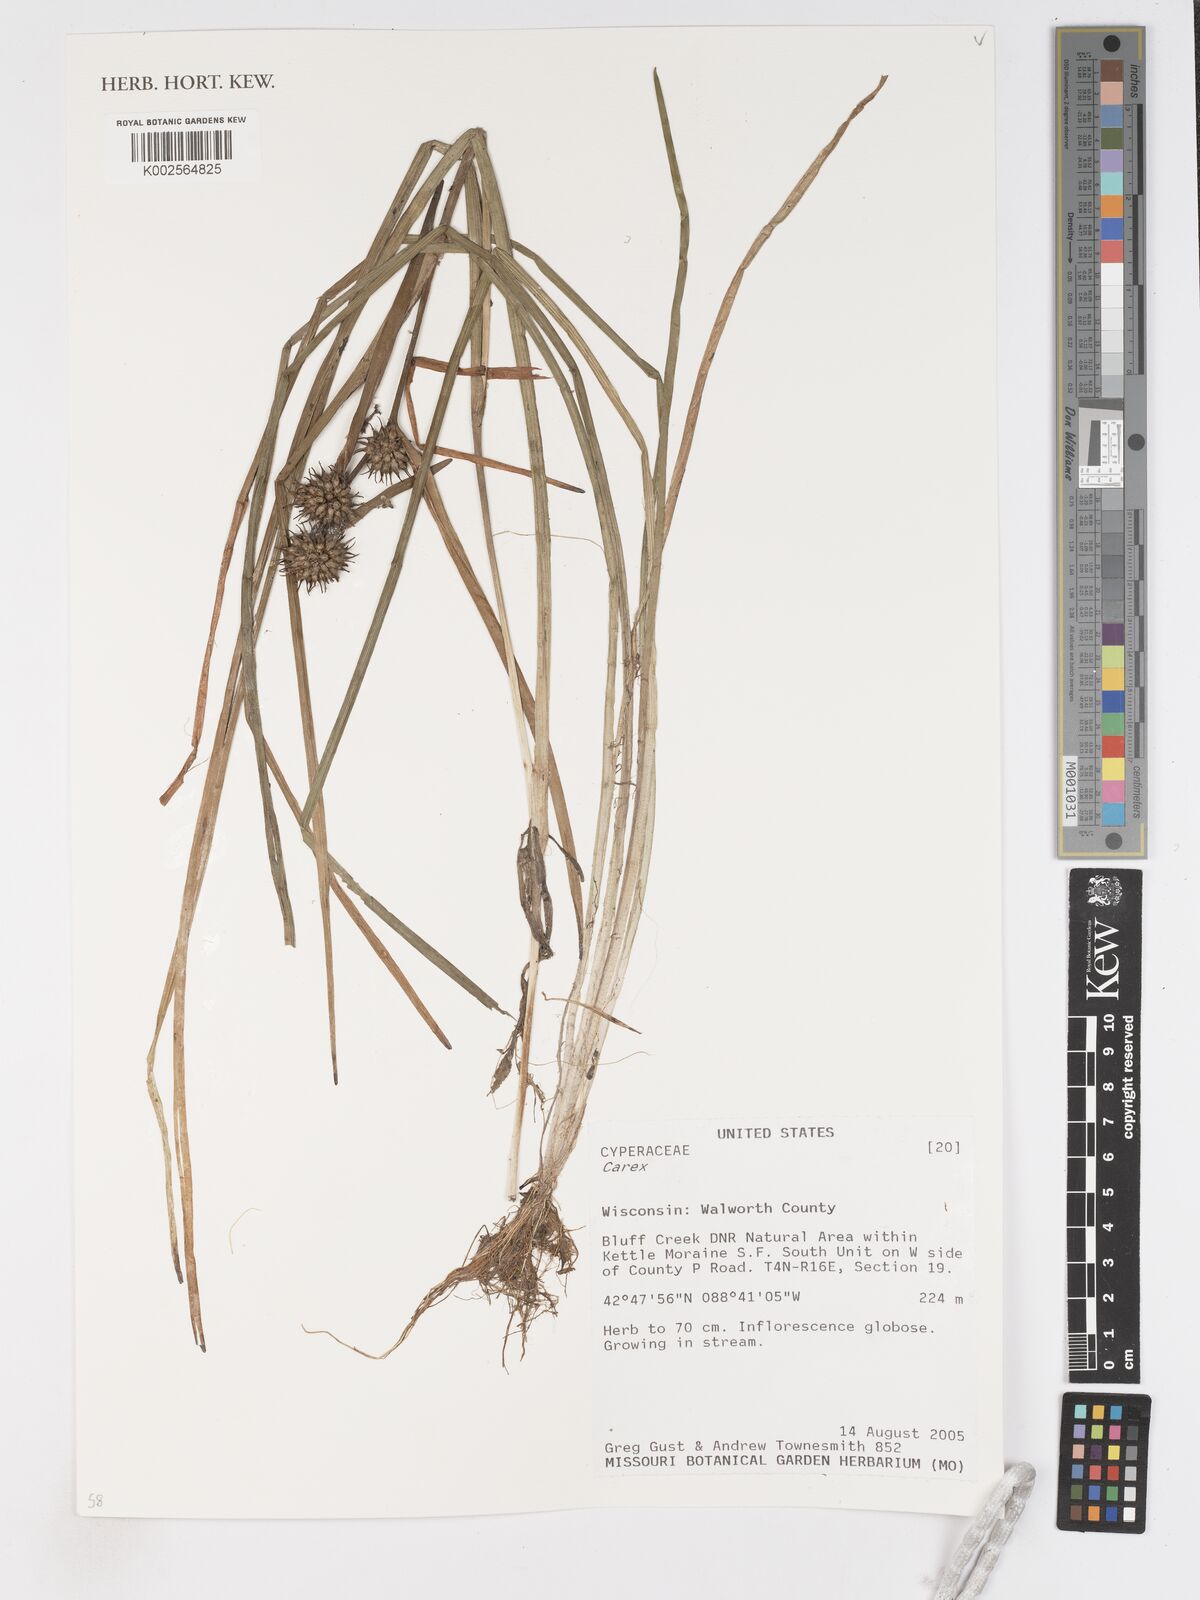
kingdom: Plantae
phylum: Tracheophyta
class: Liliopsida
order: Poales
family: Cyperaceae
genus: Carex
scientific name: Carex
